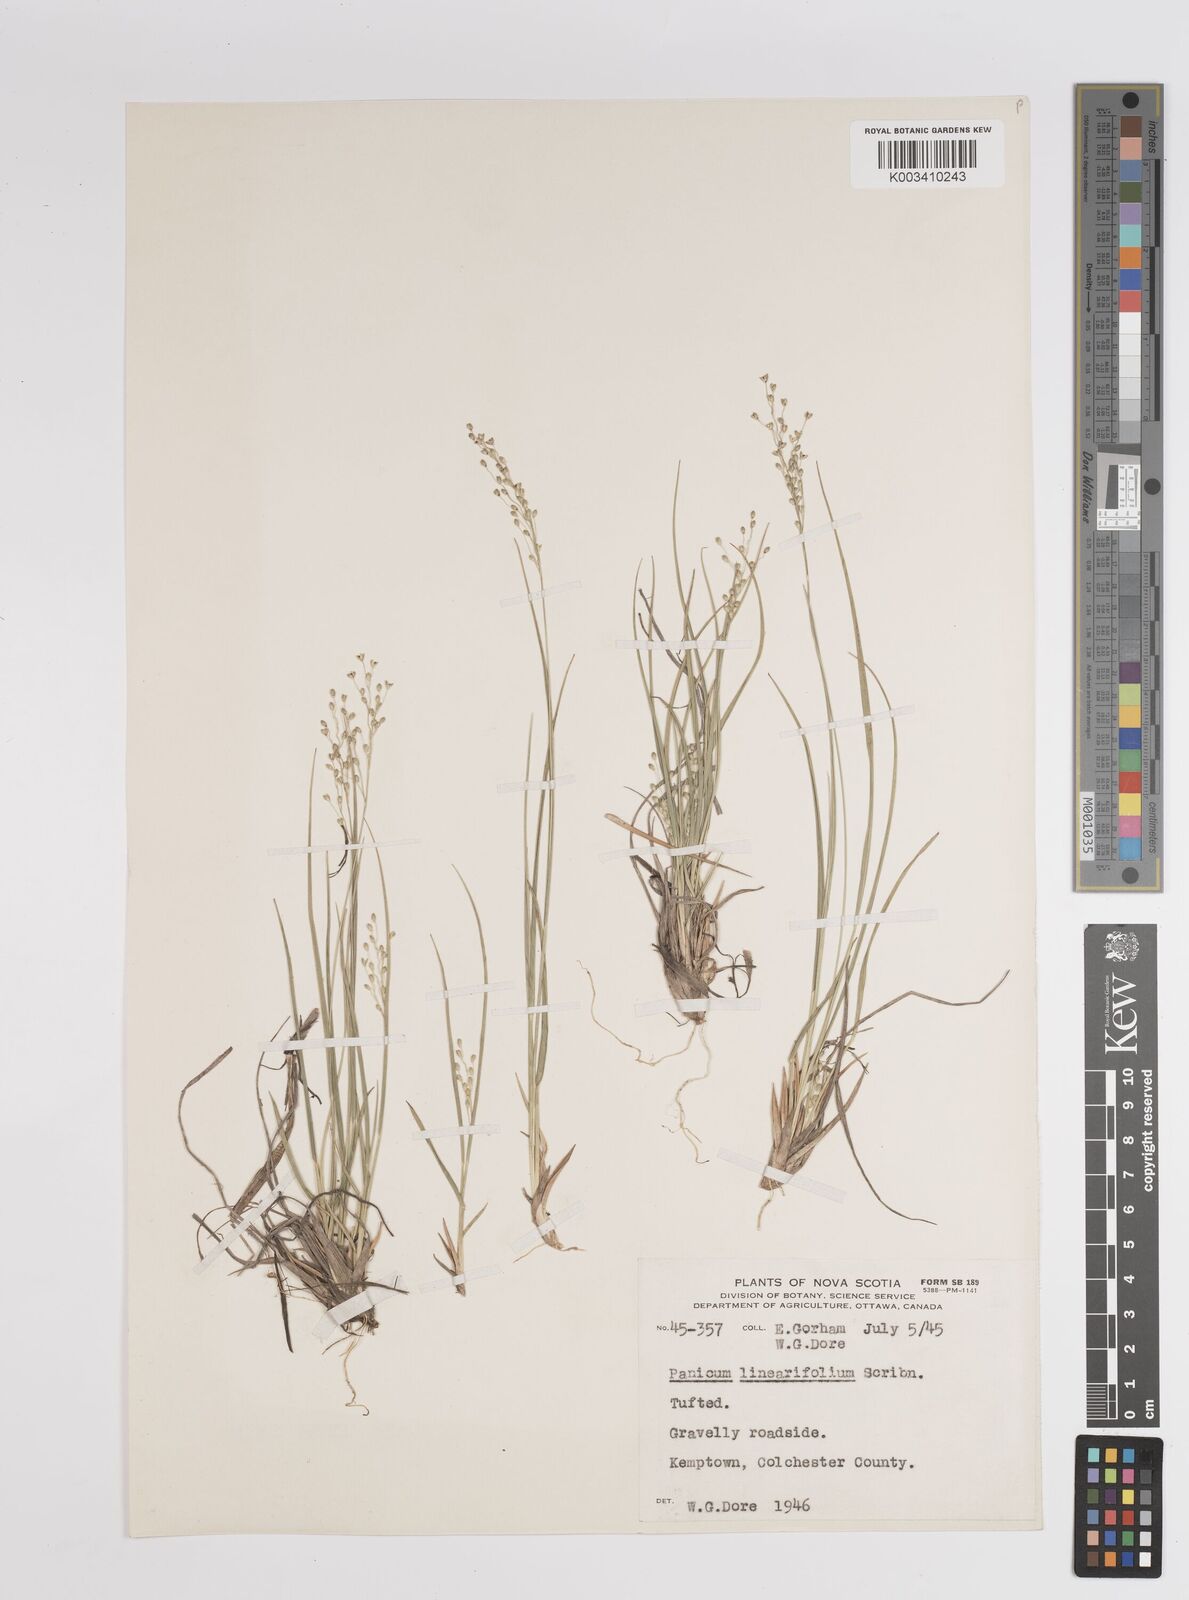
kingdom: Plantae
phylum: Tracheophyta
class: Liliopsida
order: Poales
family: Poaceae
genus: Dichanthelium
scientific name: Dichanthelium linearifolium
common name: Linear-leaved panicgrass
